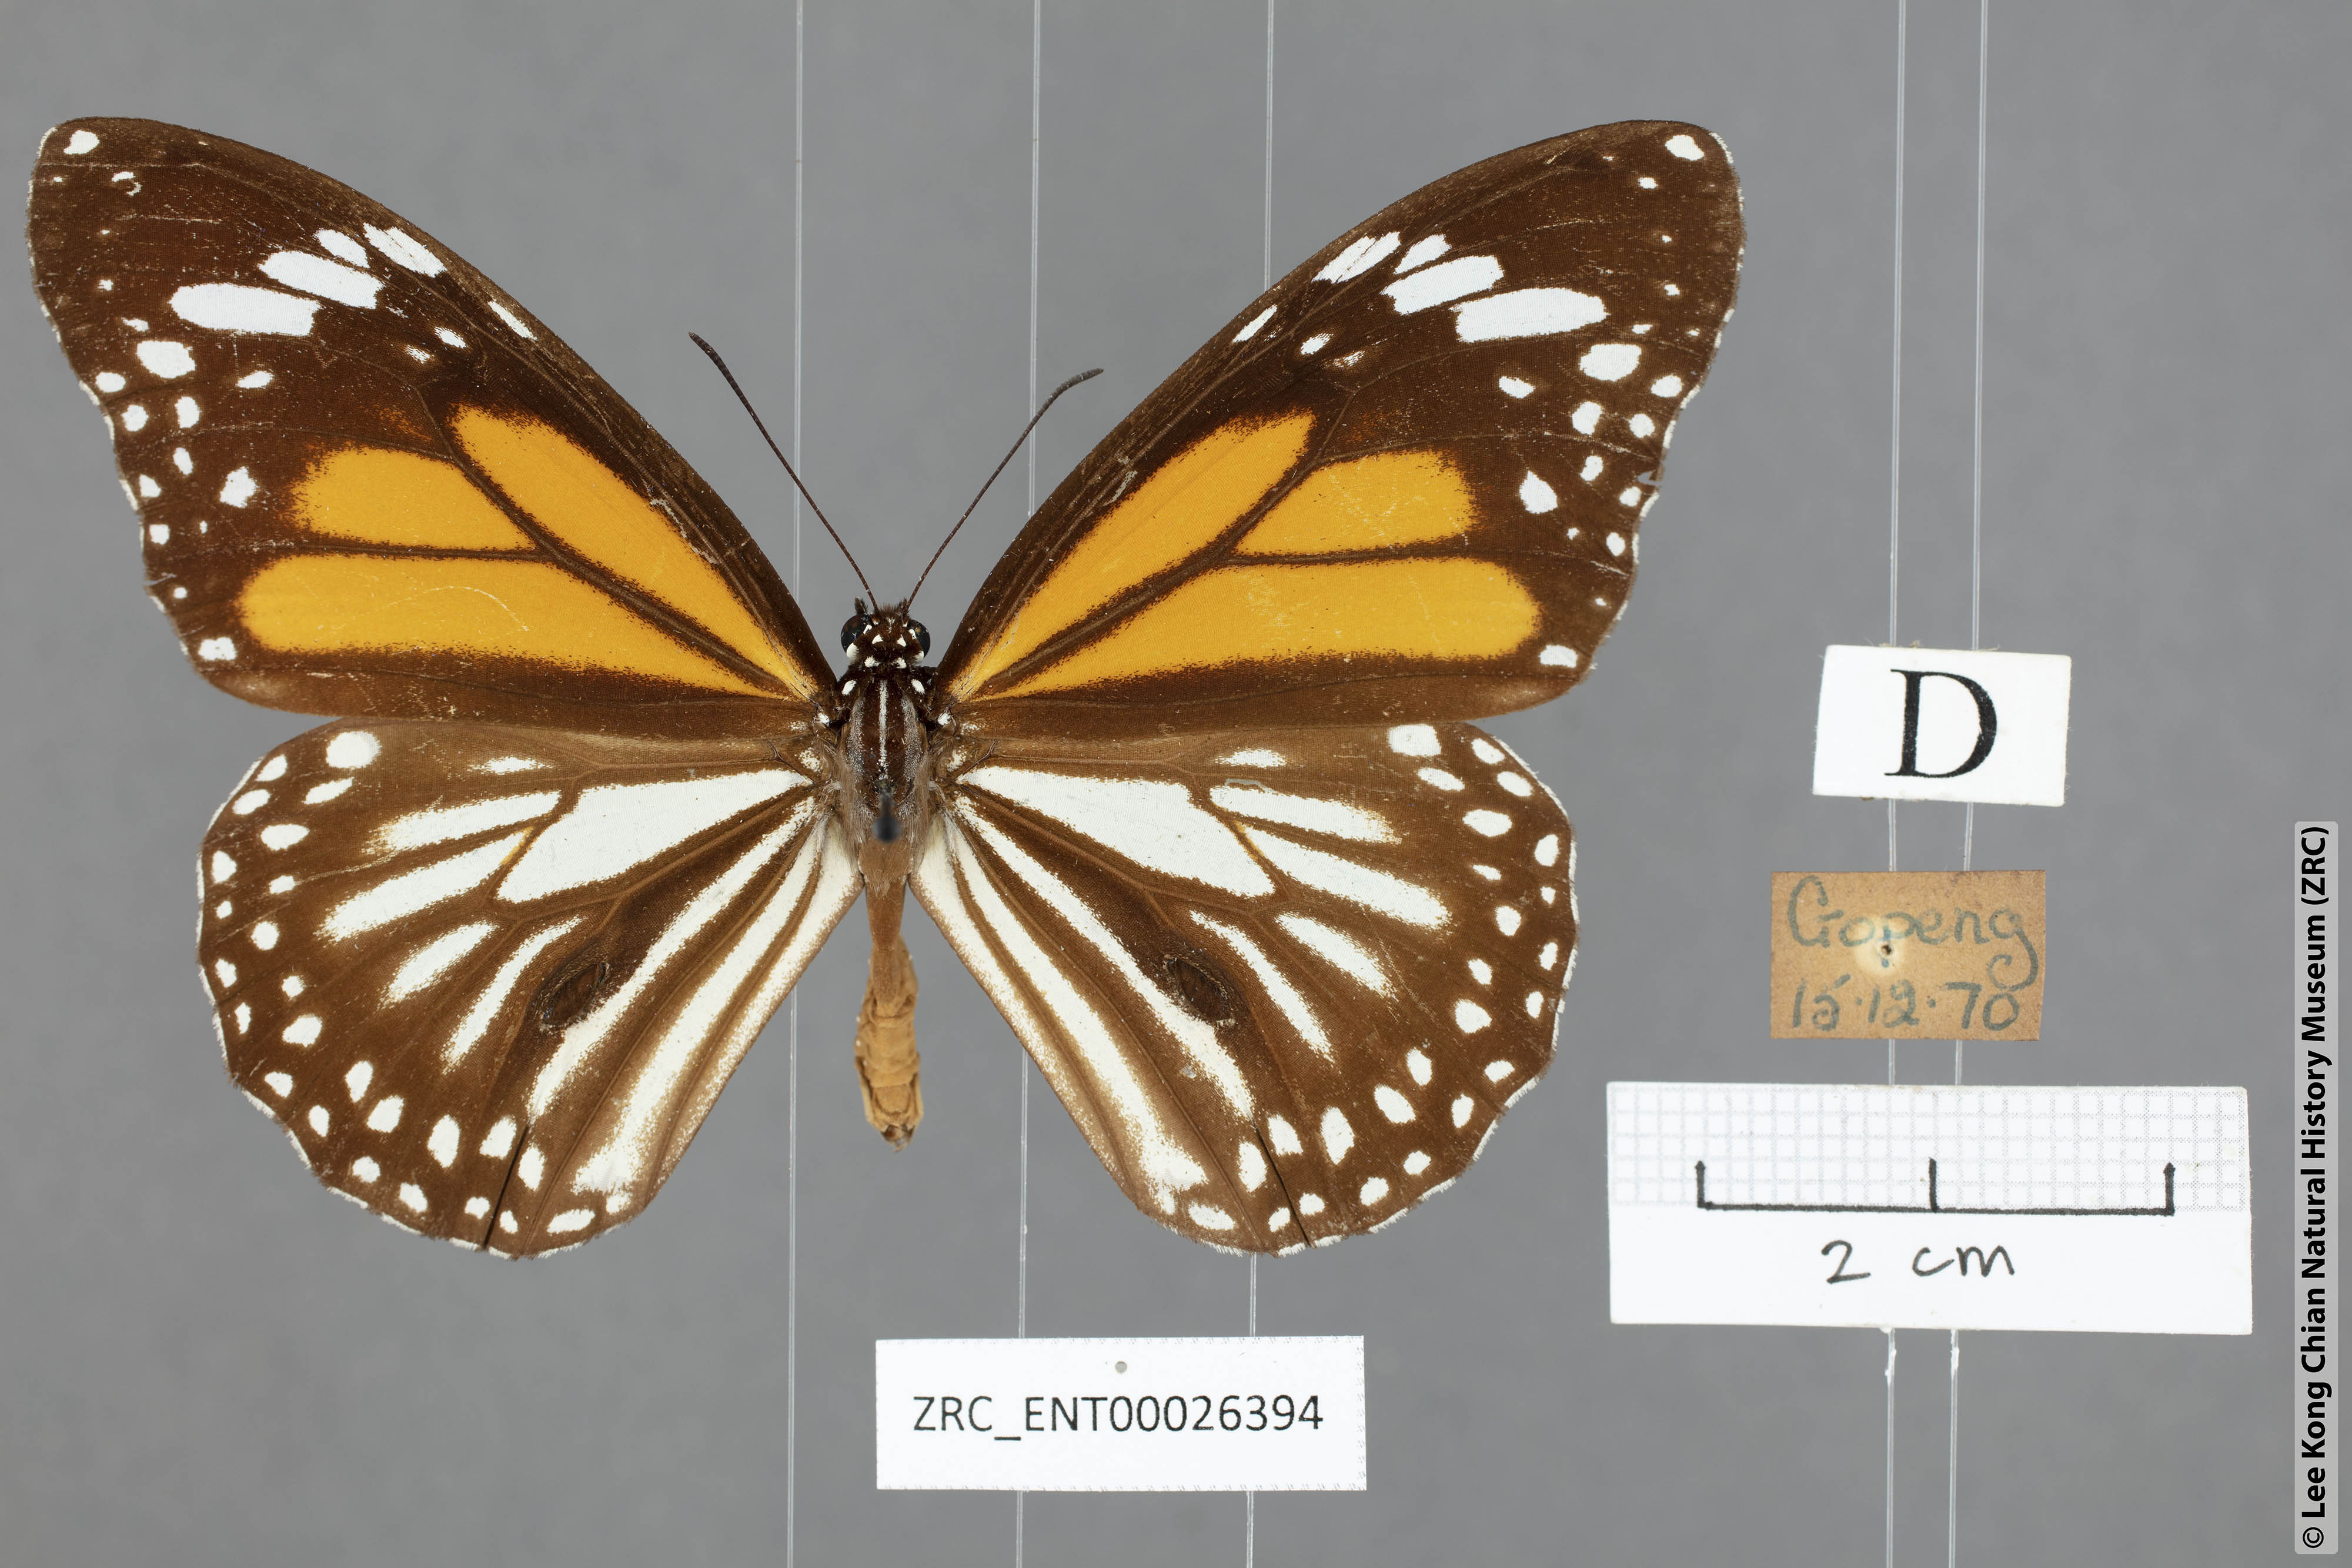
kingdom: Animalia
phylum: Arthropoda
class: Insecta
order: Lepidoptera
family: Nymphalidae
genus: Danaus
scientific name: Danaus melanippus
